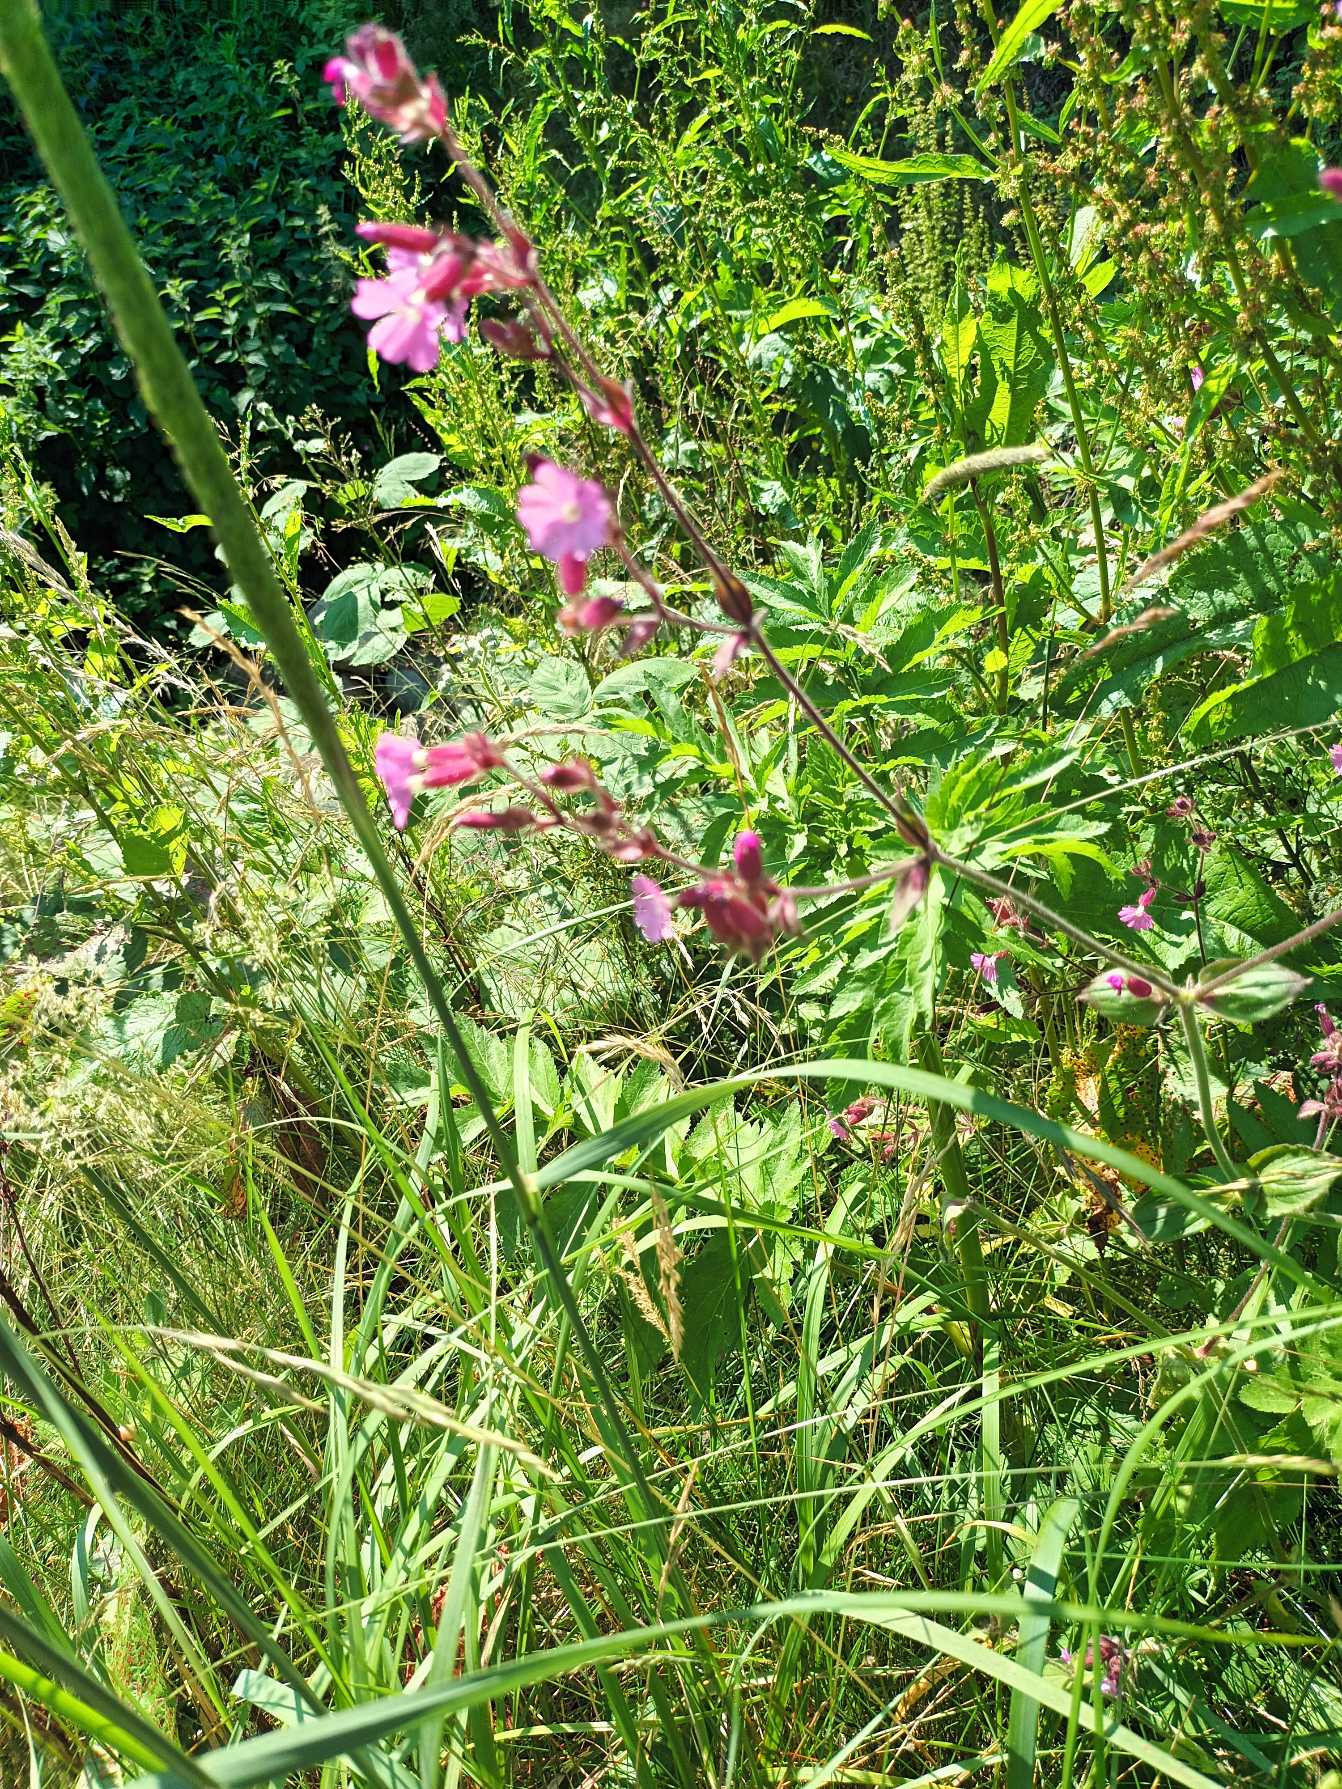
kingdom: Plantae
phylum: Tracheophyta
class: Magnoliopsida
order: Caryophyllales
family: Caryophyllaceae
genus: Silene
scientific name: Silene dioica
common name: Dagpragtstjerne
